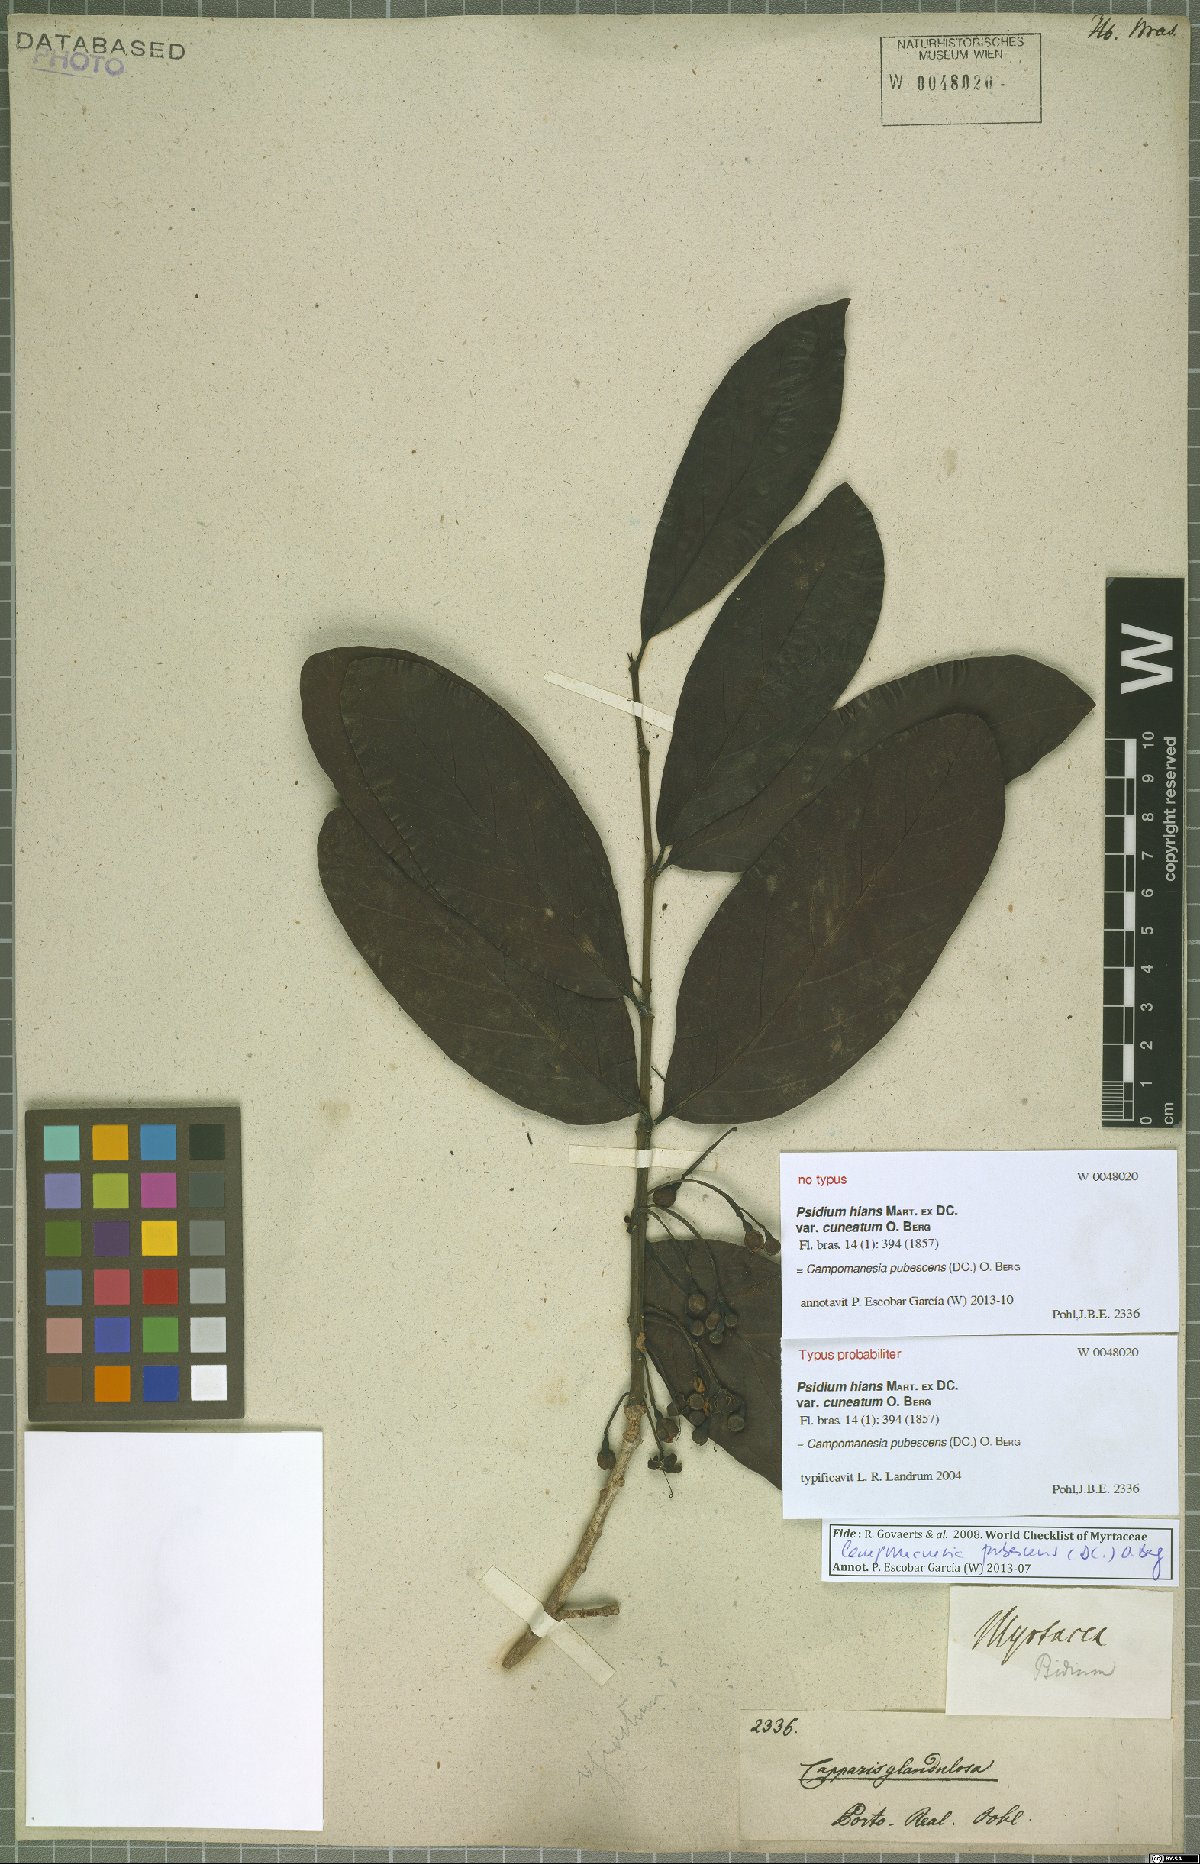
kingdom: Plantae
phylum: Tracheophyta
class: Magnoliopsida
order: Myrtales
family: Myrtaceae
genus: Campomanesia
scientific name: Campomanesia pubescens
